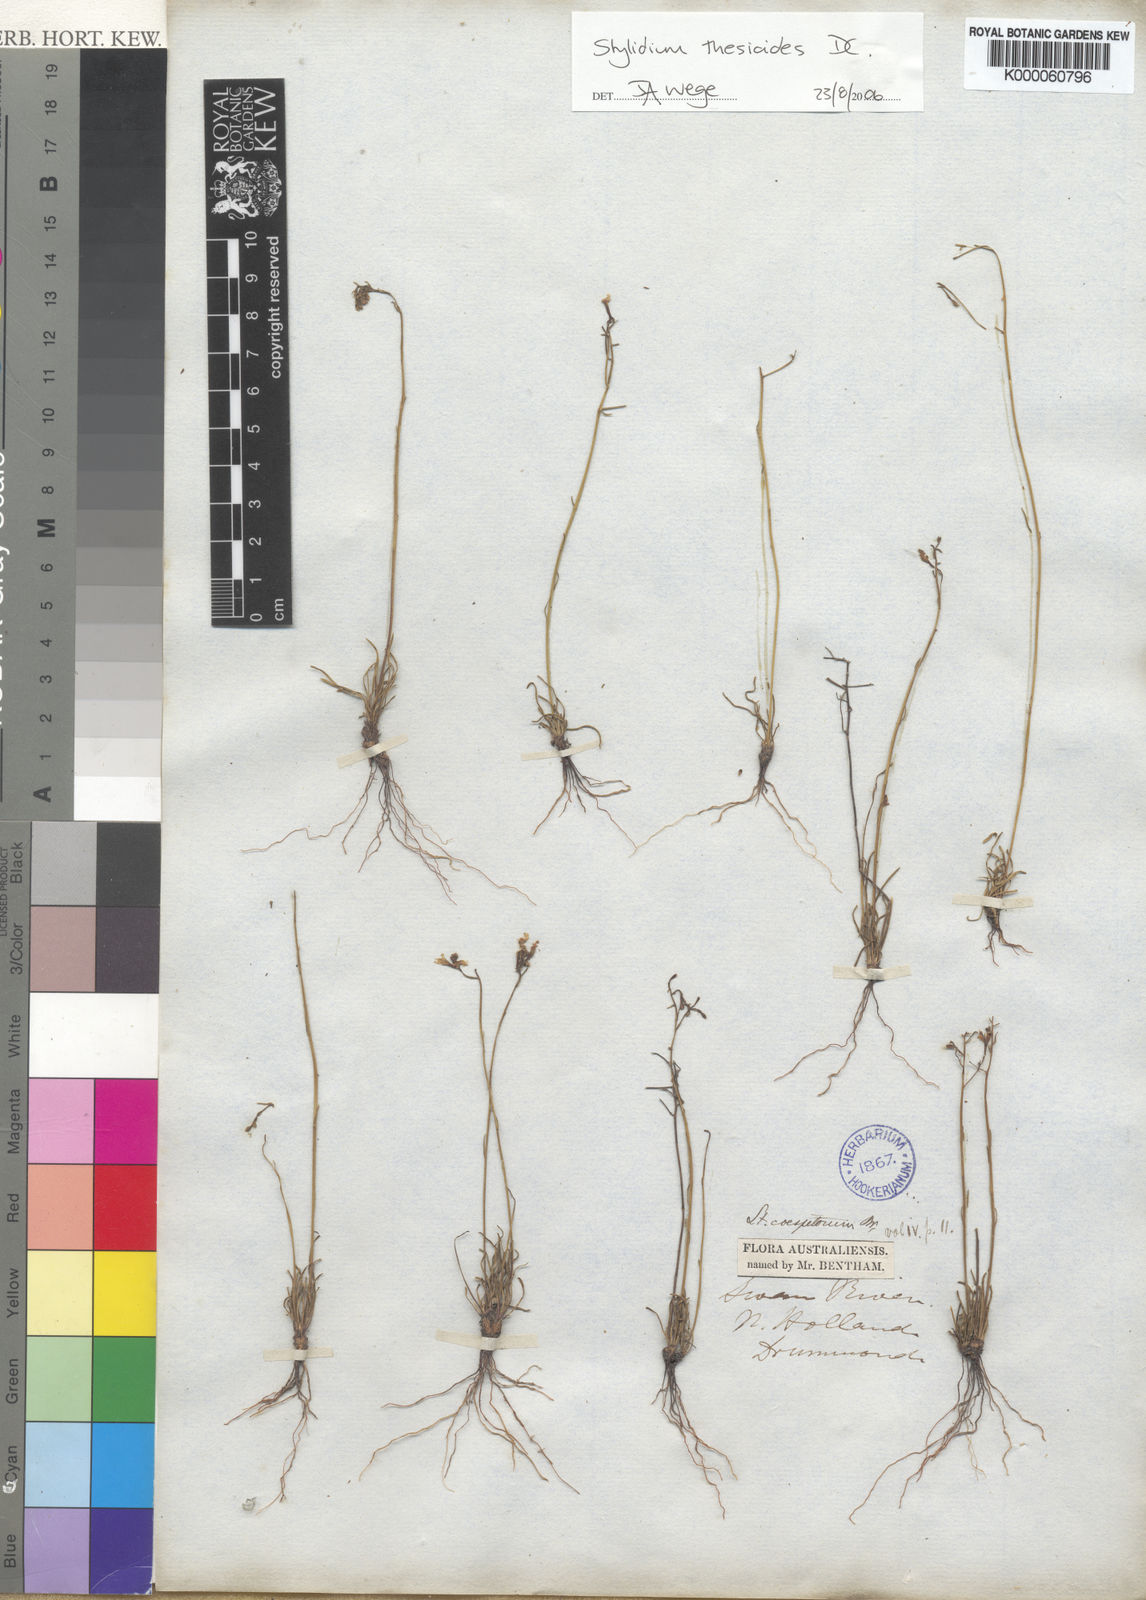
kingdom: Plantae
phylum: Tracheophyta
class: Magnoliopsida
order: Asterales
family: Stylidiaceae
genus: Stylidium
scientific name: Stylidium thesioides
